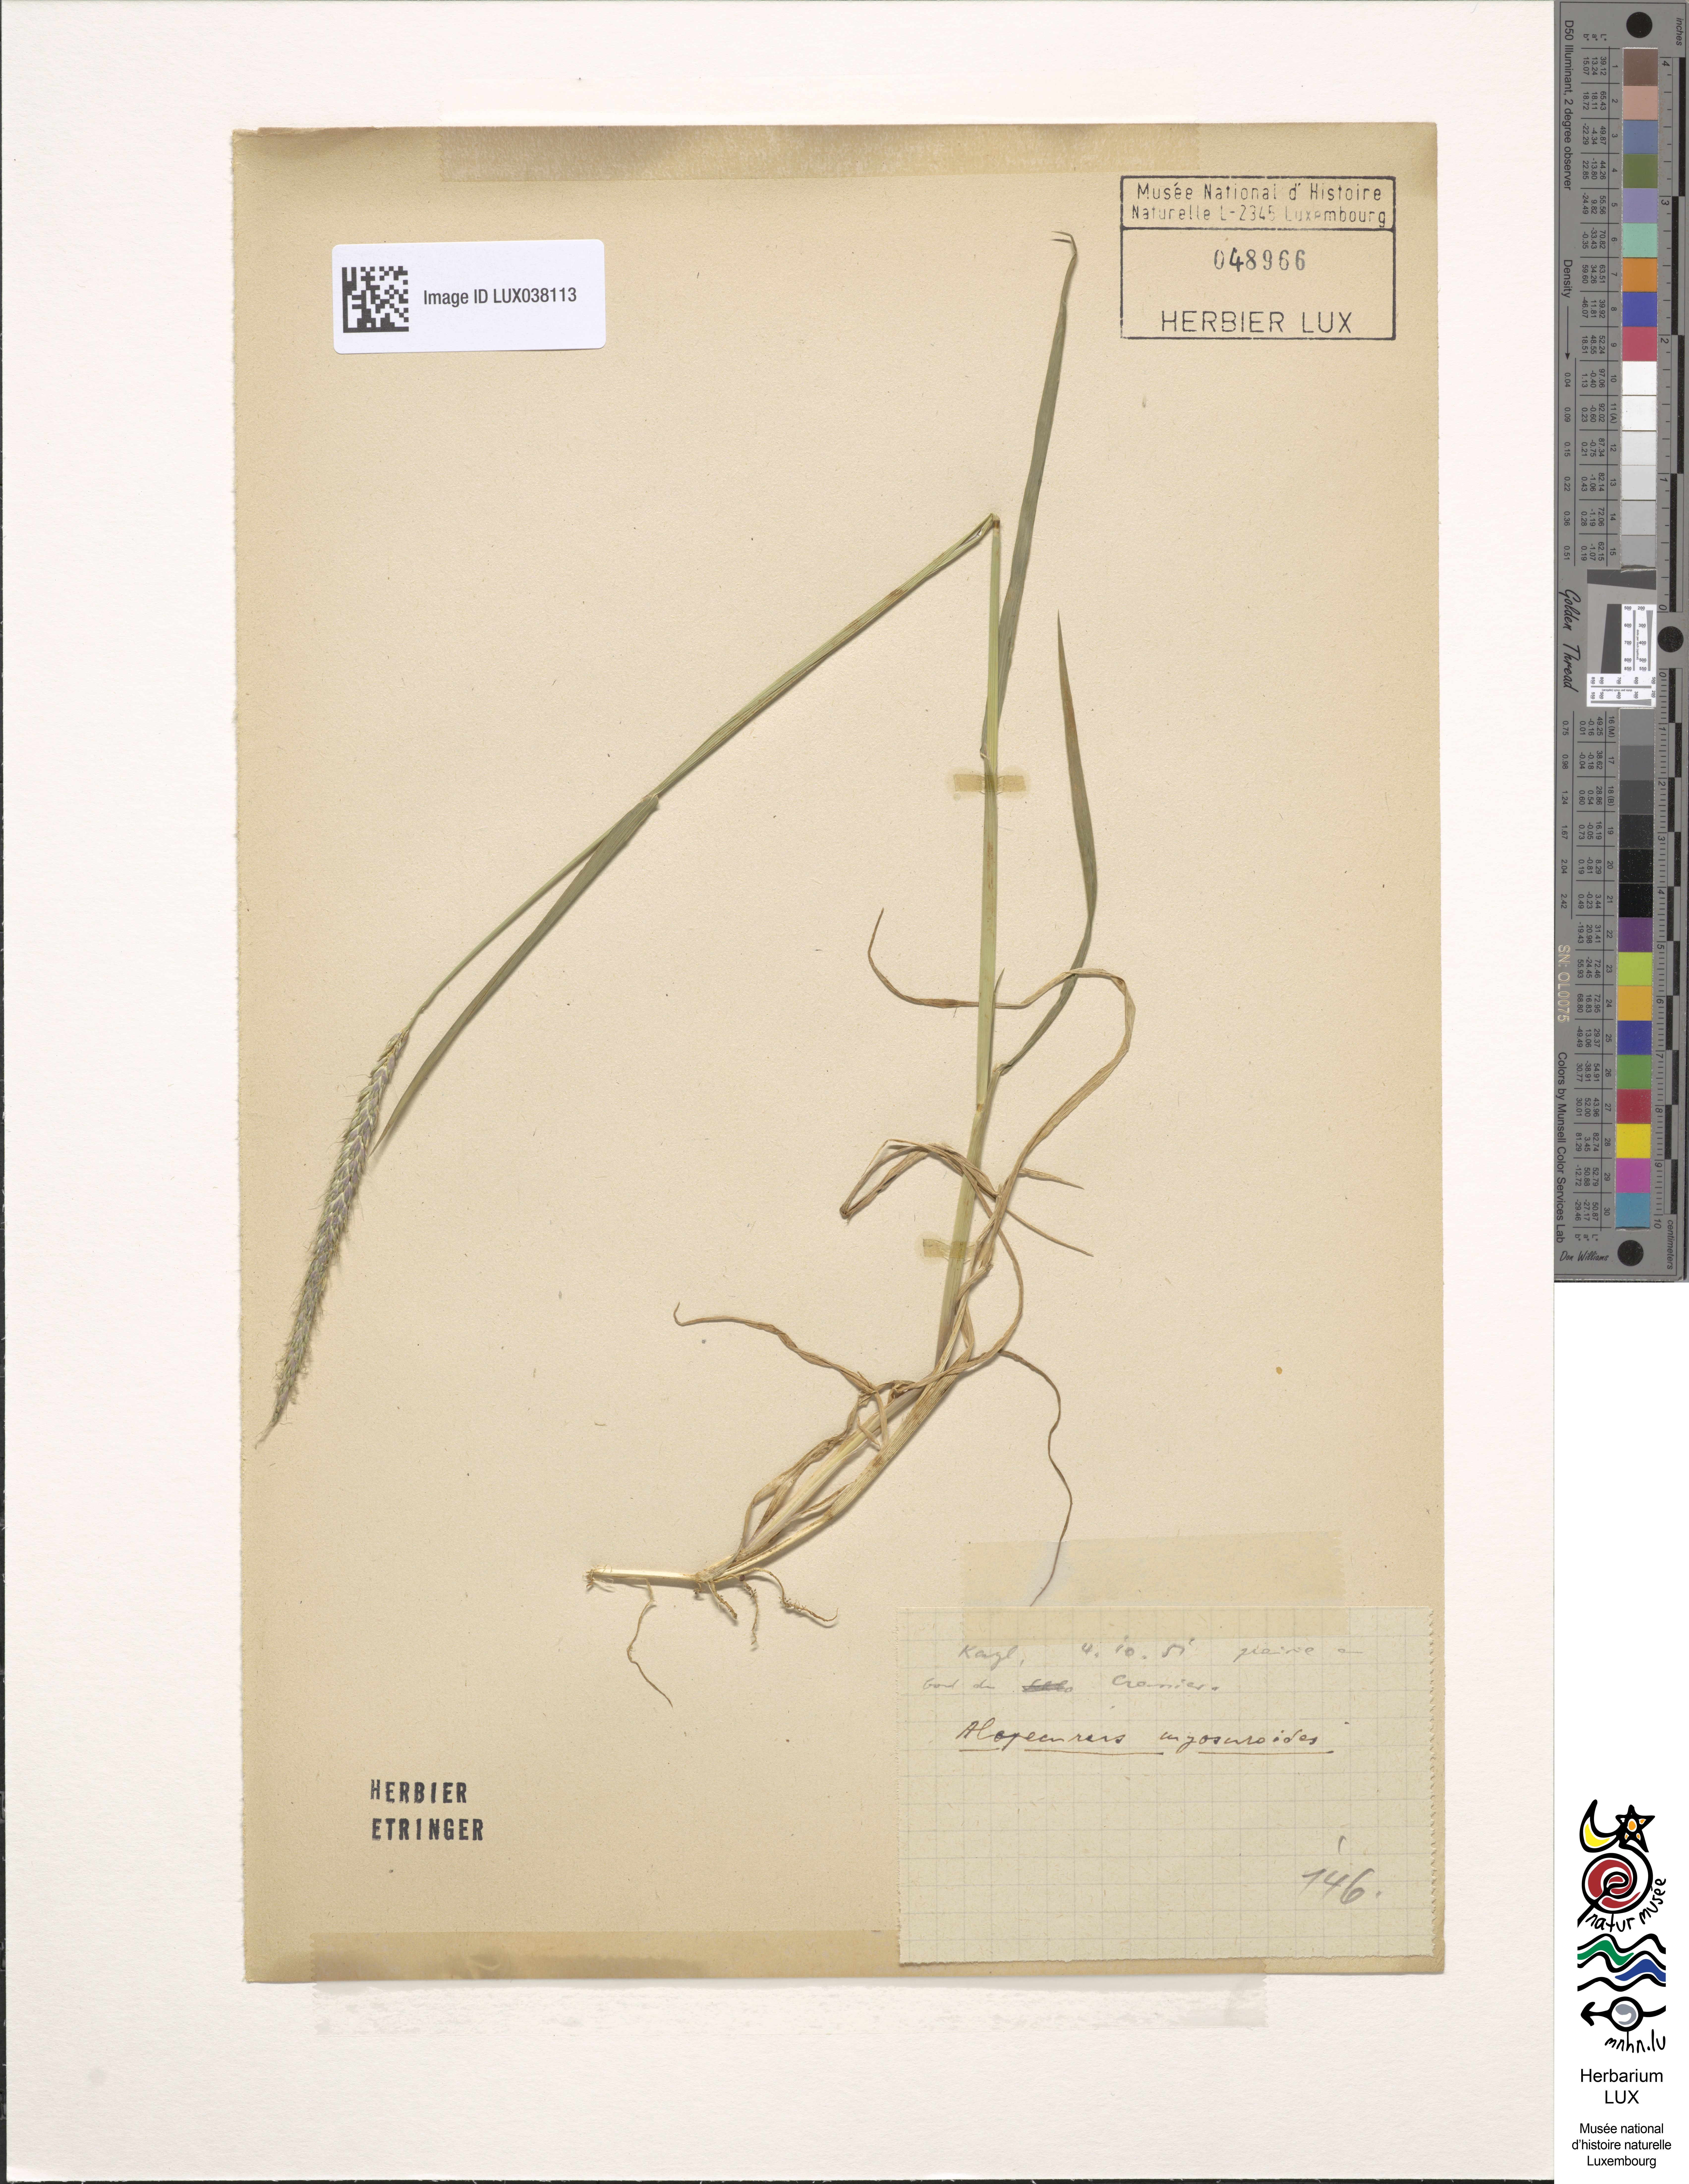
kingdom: Plantae
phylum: Tracheophyta
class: Liliopsida
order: Poales
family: Poaceae
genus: Alopecurus
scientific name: Alopecurus myosuroides
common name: Black-grass
